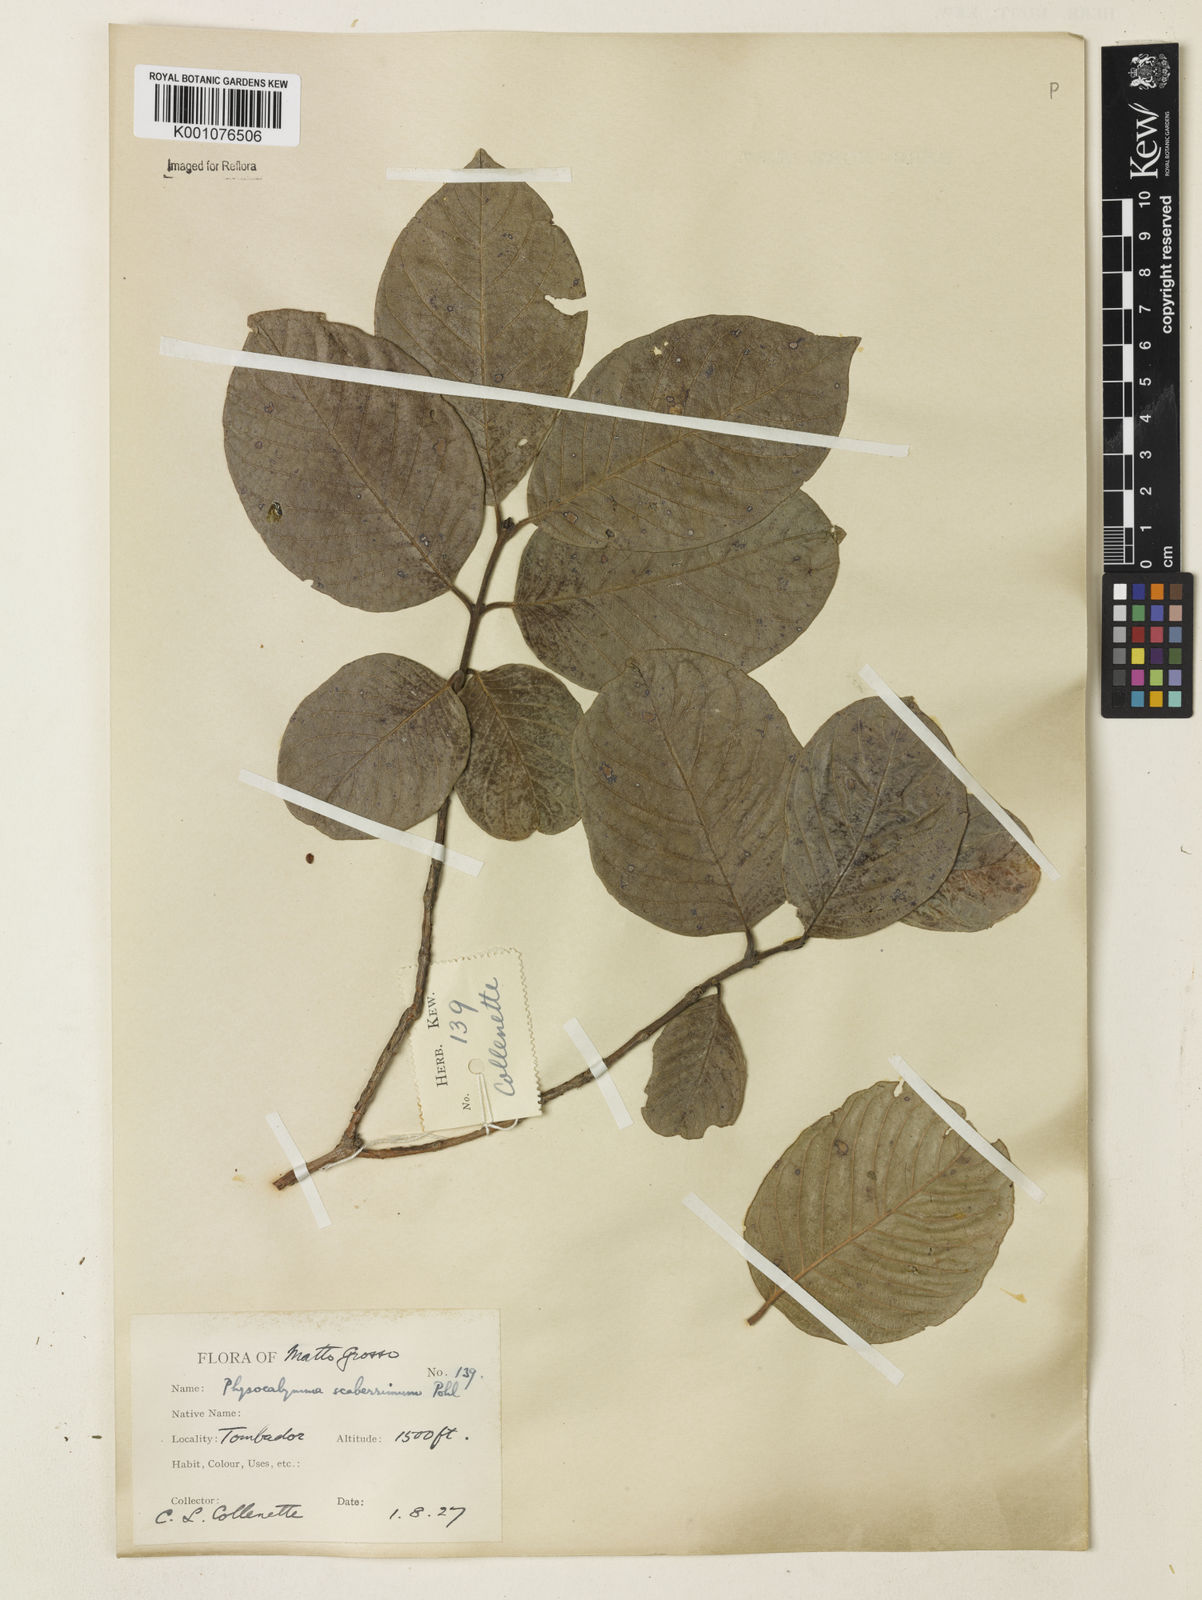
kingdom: Plantae
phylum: Tracheophyta
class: Magnoliopsida
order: Myrtales
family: Lythraceae
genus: Physocalymma
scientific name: Physocalymma scaberrimum
